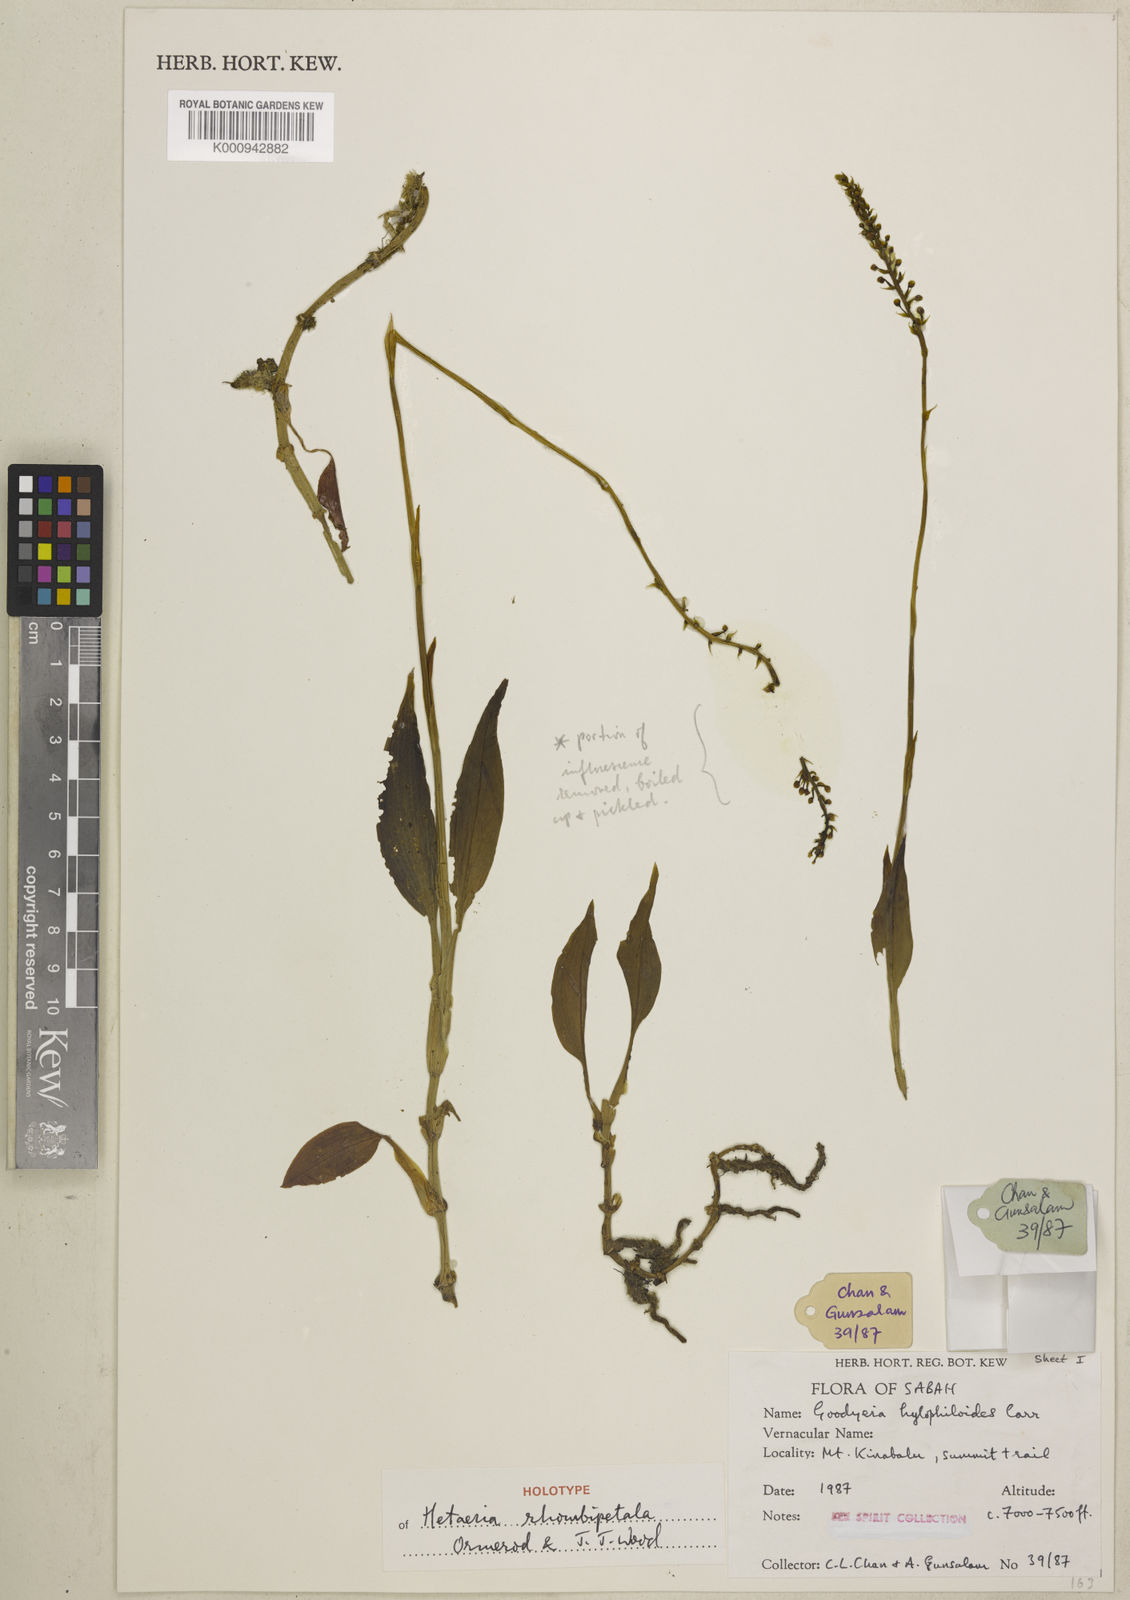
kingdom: Plantae
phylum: Tracheophyta
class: Liliopsida
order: Asparagales
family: Orchidaceae
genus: Hetaeria
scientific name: Hetaeria rhombipetala
